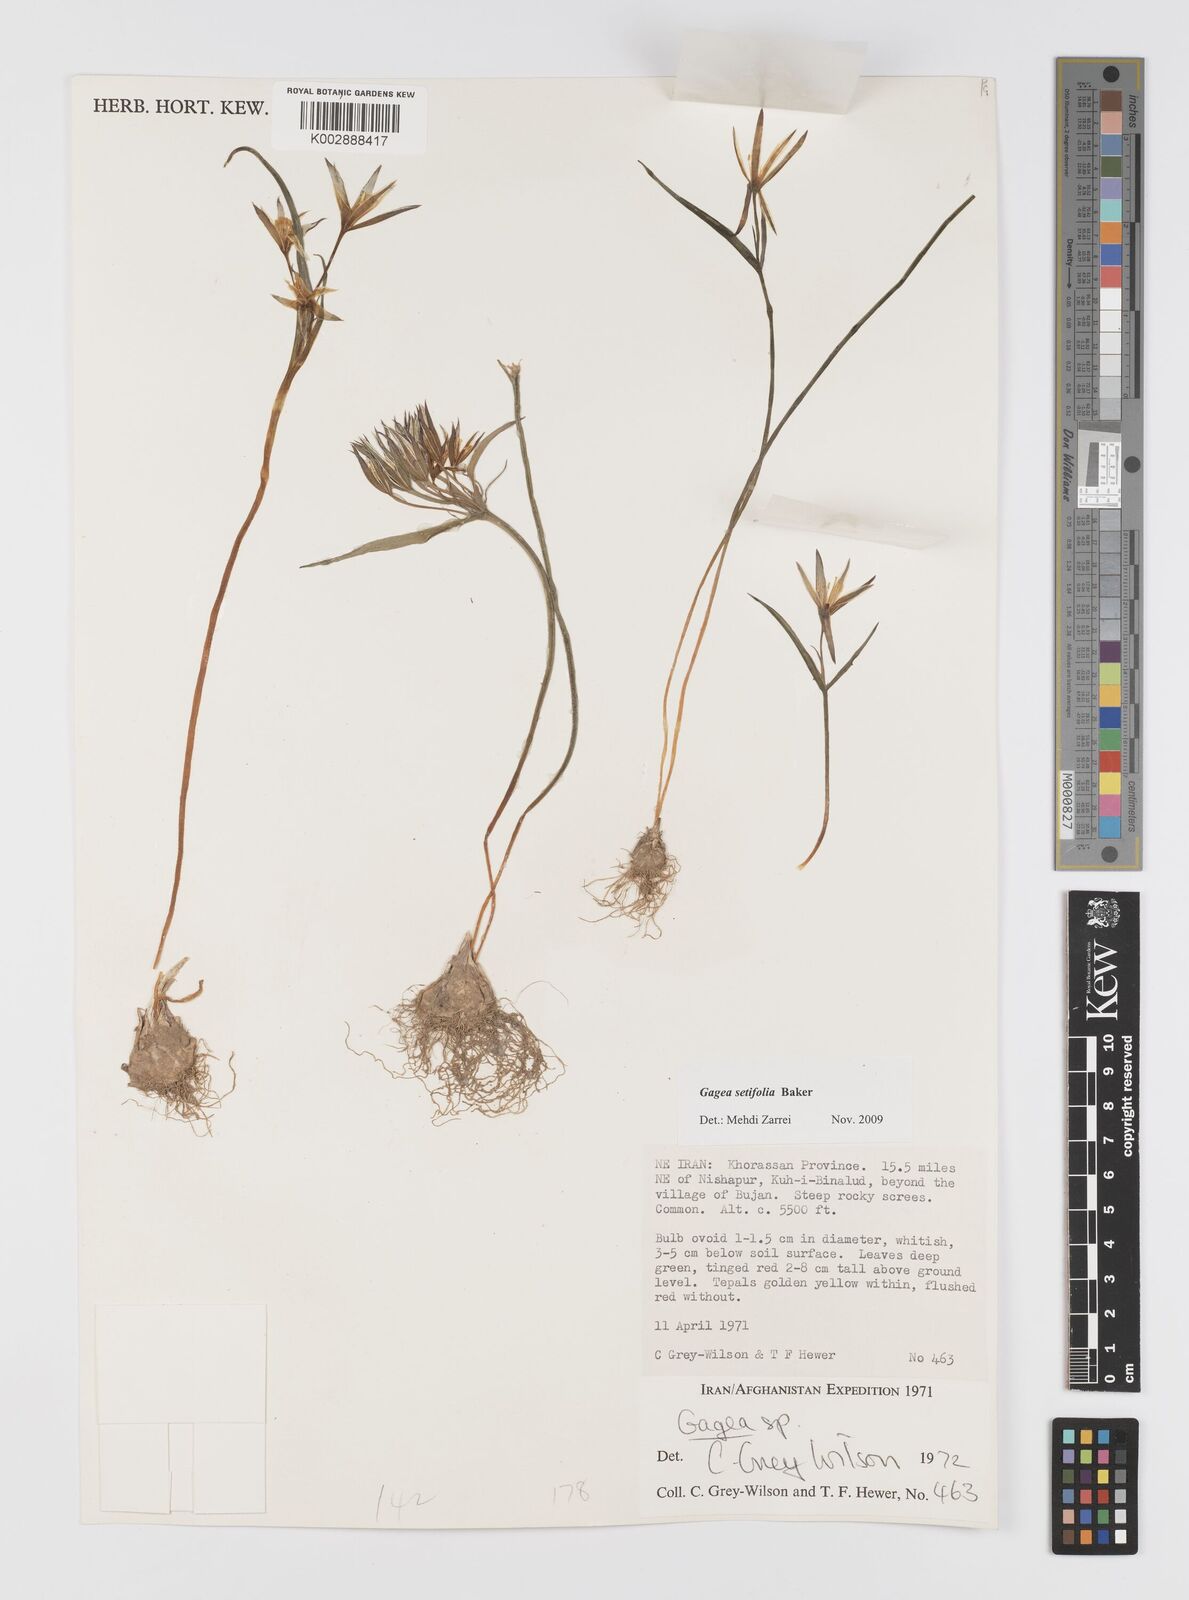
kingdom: Plantae
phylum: Tracheophyta
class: Liliopsida
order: Liliales
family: Liliaceae
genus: Gagea
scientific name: Gagea setifolia
